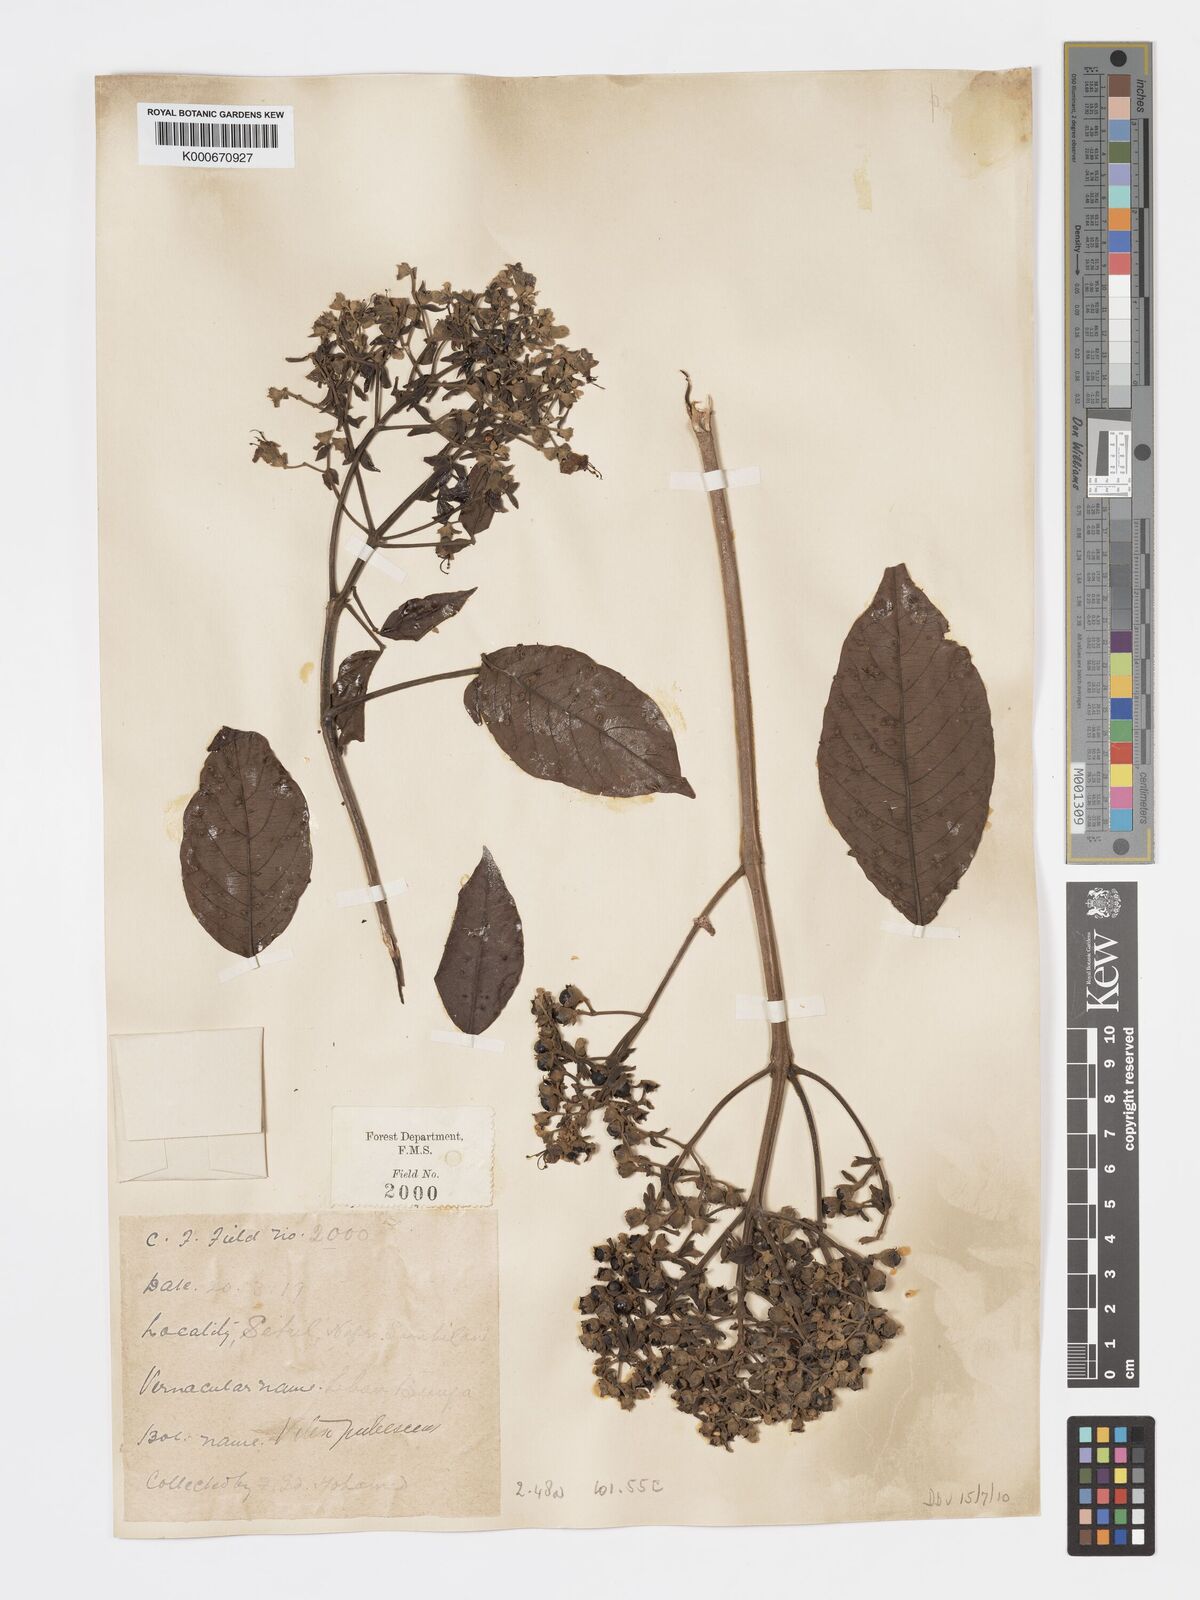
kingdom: Plantae
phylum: Tracheophyta
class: Magnoliopsida
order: Lamiales
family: Lamiaceae
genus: Vitex
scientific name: Vitex pinnata
